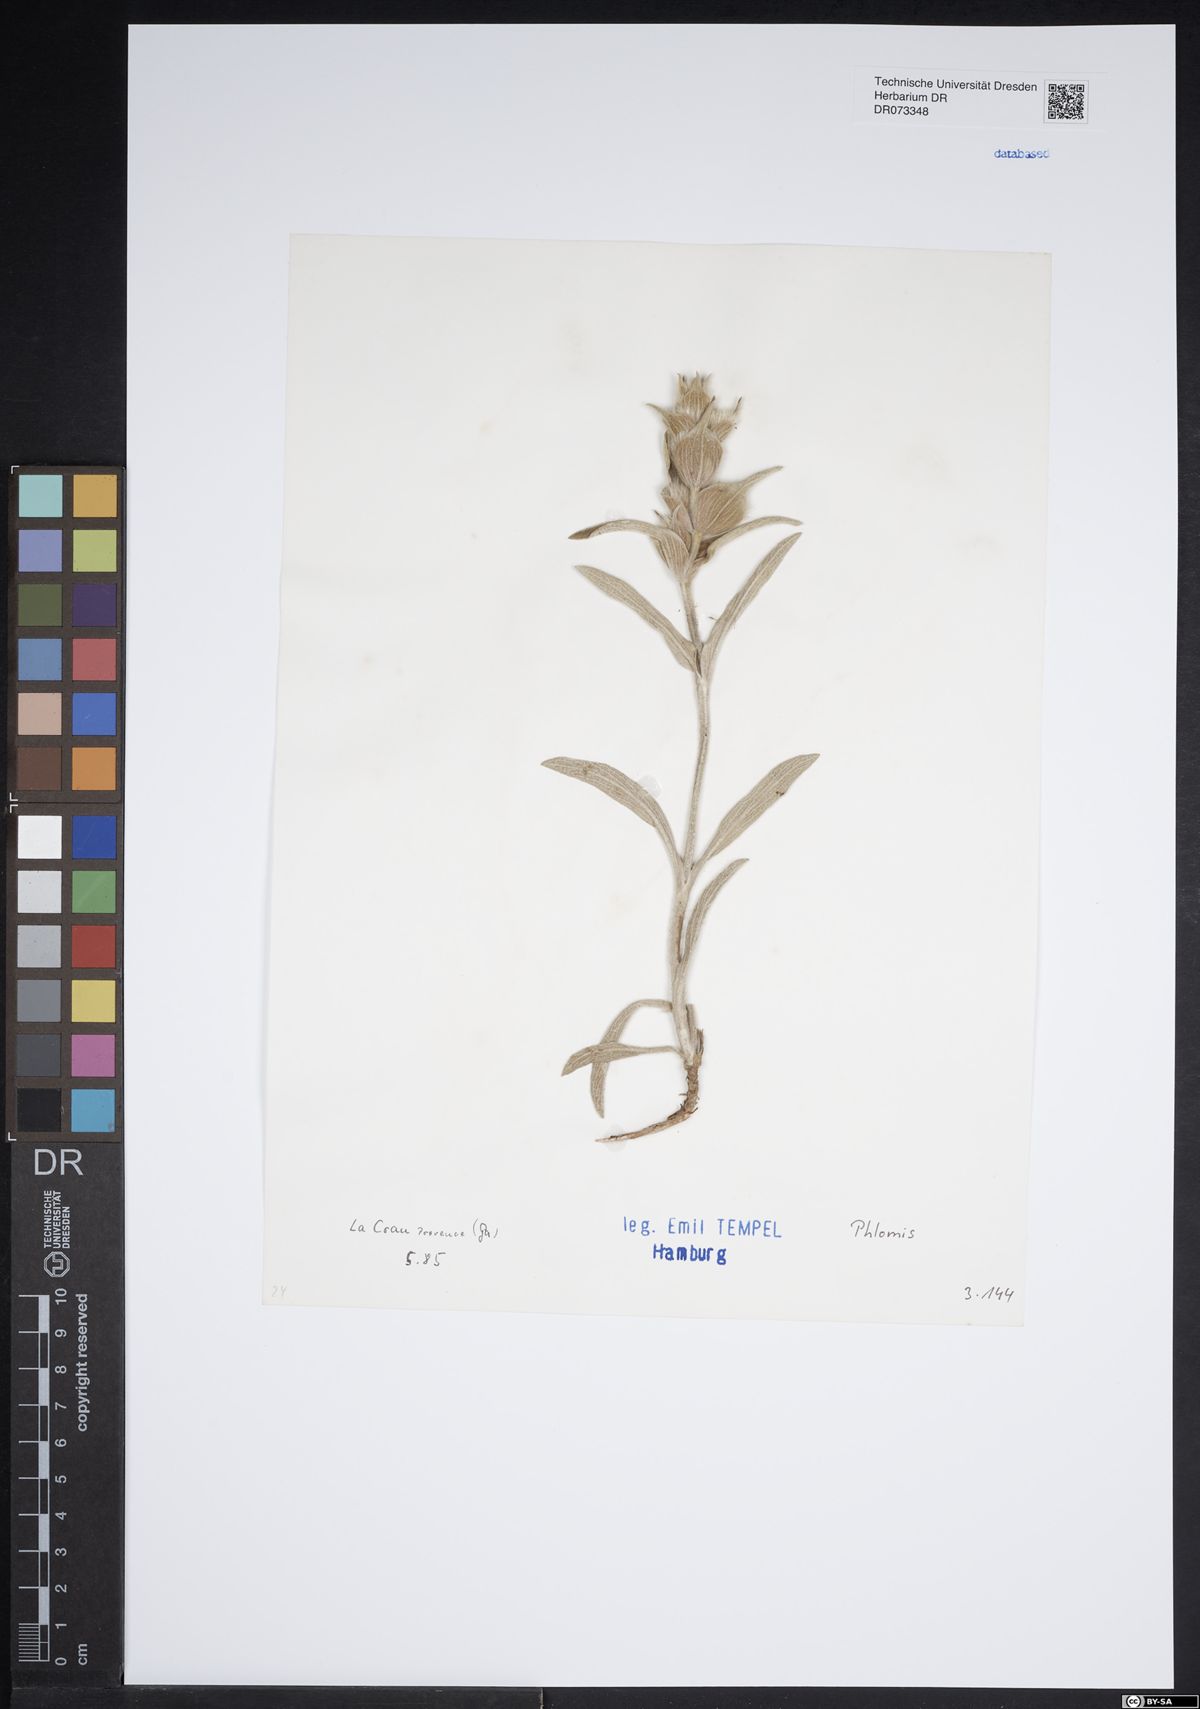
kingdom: Plantae
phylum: Tracheophyta
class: Magnoliopsida
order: Lamiales
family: Lamiaceae
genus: Phlomis
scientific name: Phlomis
